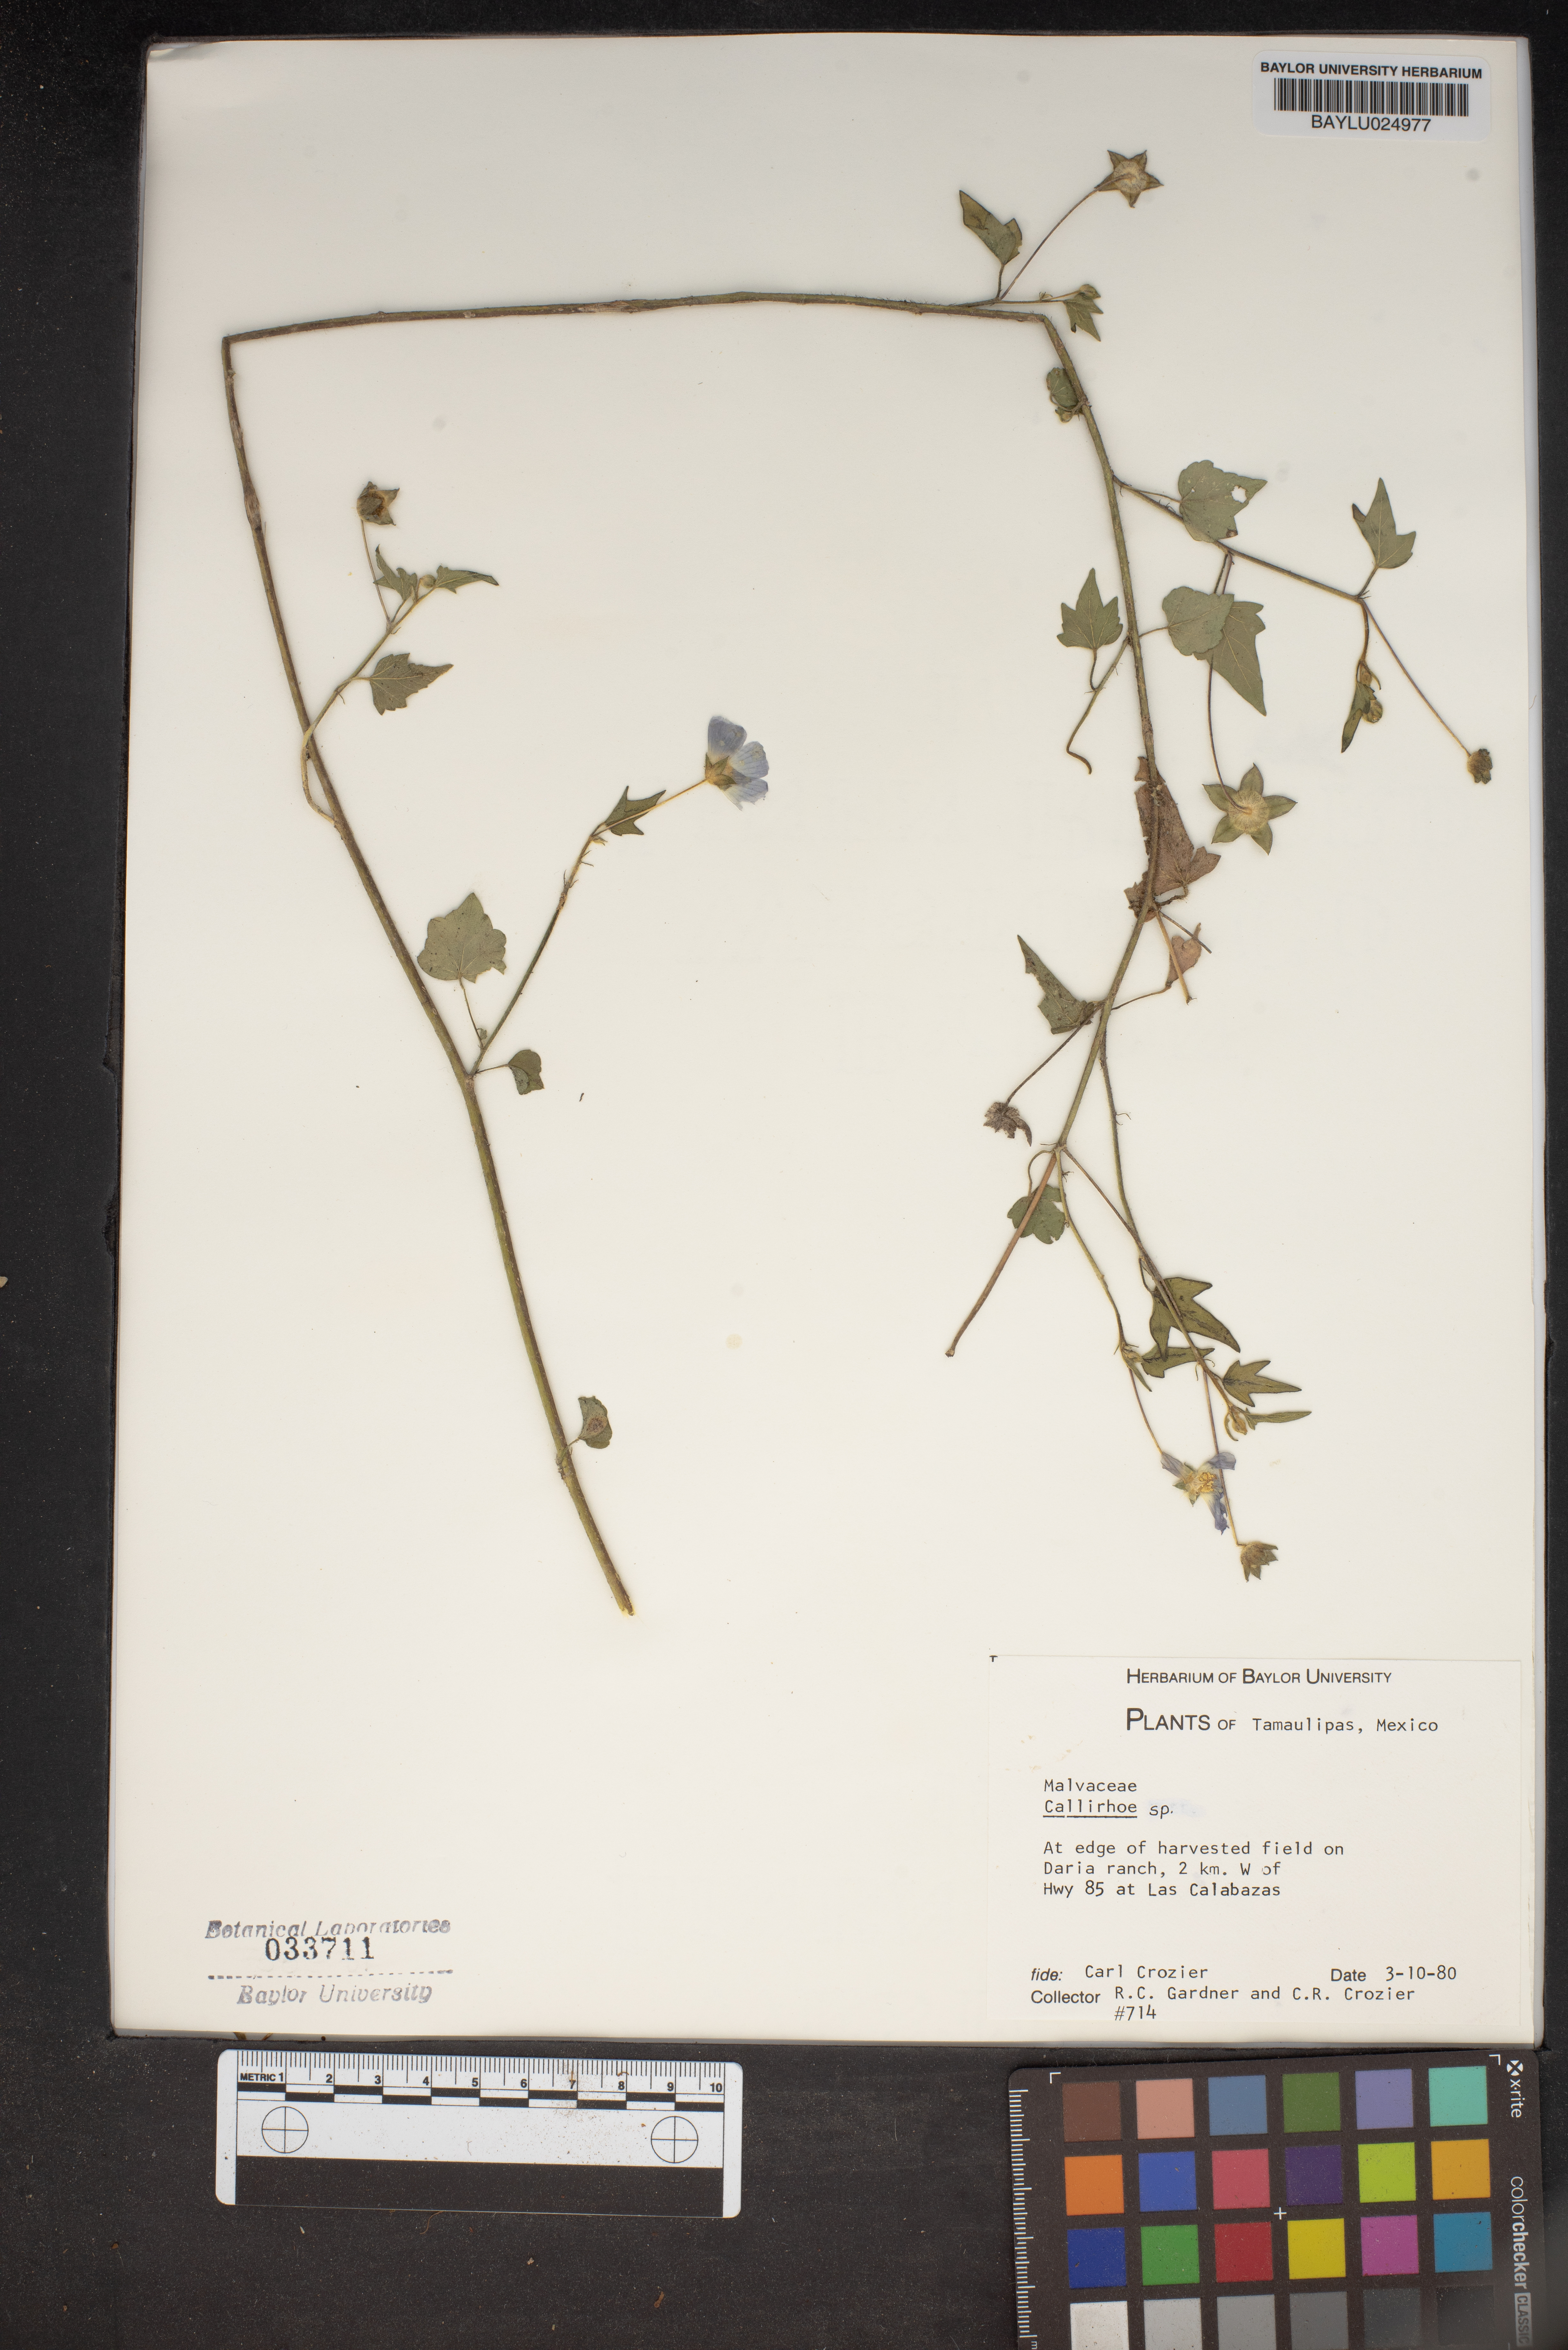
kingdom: Plantae
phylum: Tracheophyta
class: Magnoliopsida
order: Malvales
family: Malvaceae
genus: Callirhoe
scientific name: Callirhoe
